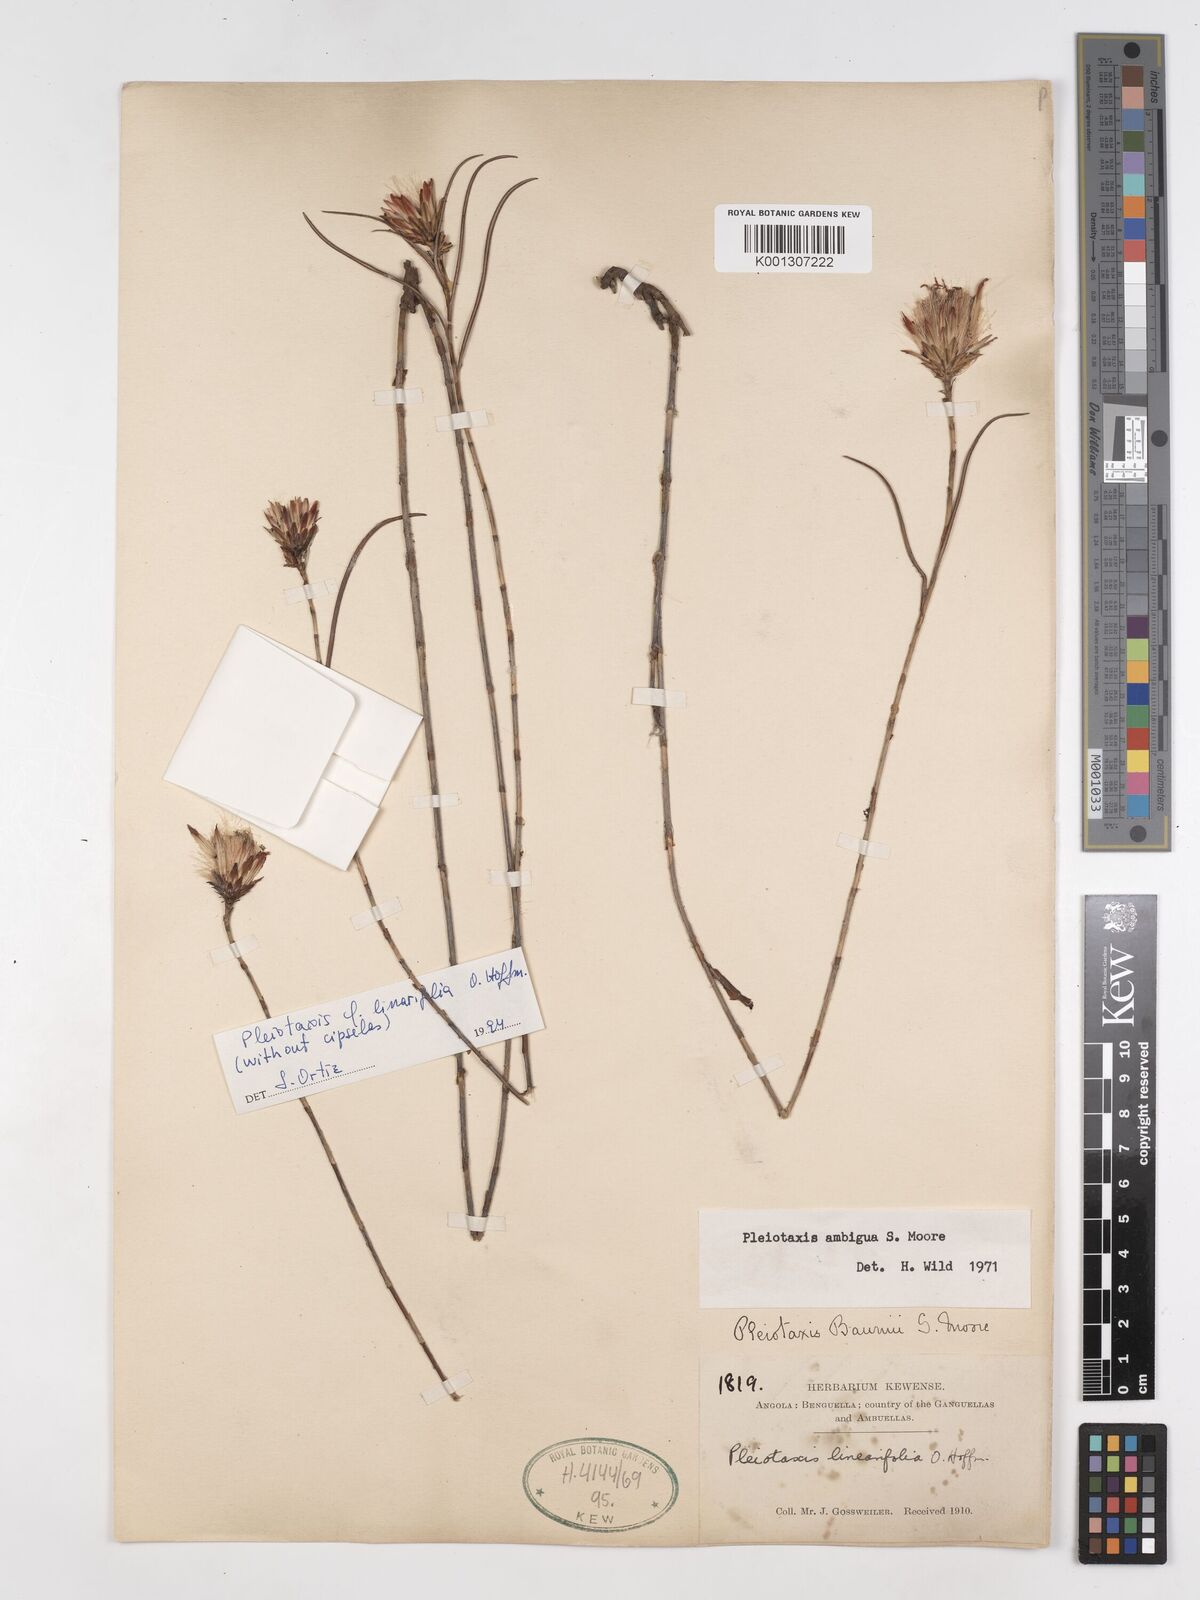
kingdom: Plantae
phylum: Tracheophyta
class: Magnoliopsida
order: Asterales
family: Asteraceae
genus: Pleiotaxis
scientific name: Pleiotaxis huillensis
